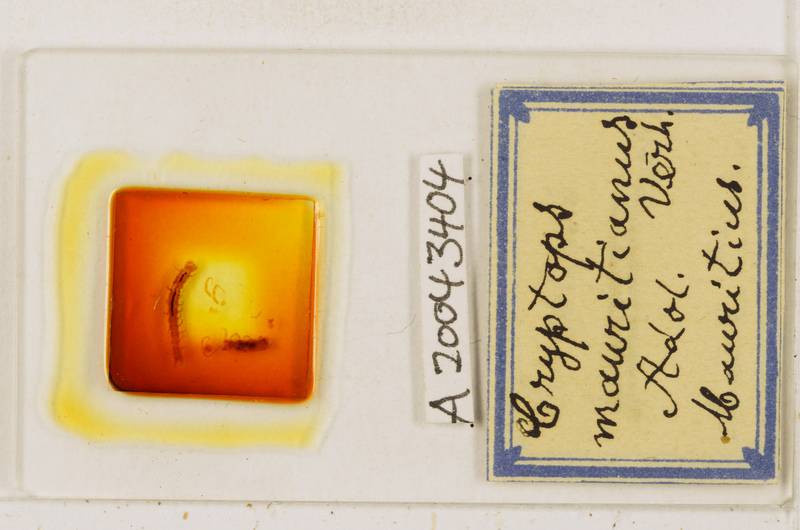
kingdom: Animalia
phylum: Arthropoda
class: Chilopoda
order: Scolopendromorpha
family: Cryptopidae
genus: Cryptops
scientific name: Cryptops mauritianus
